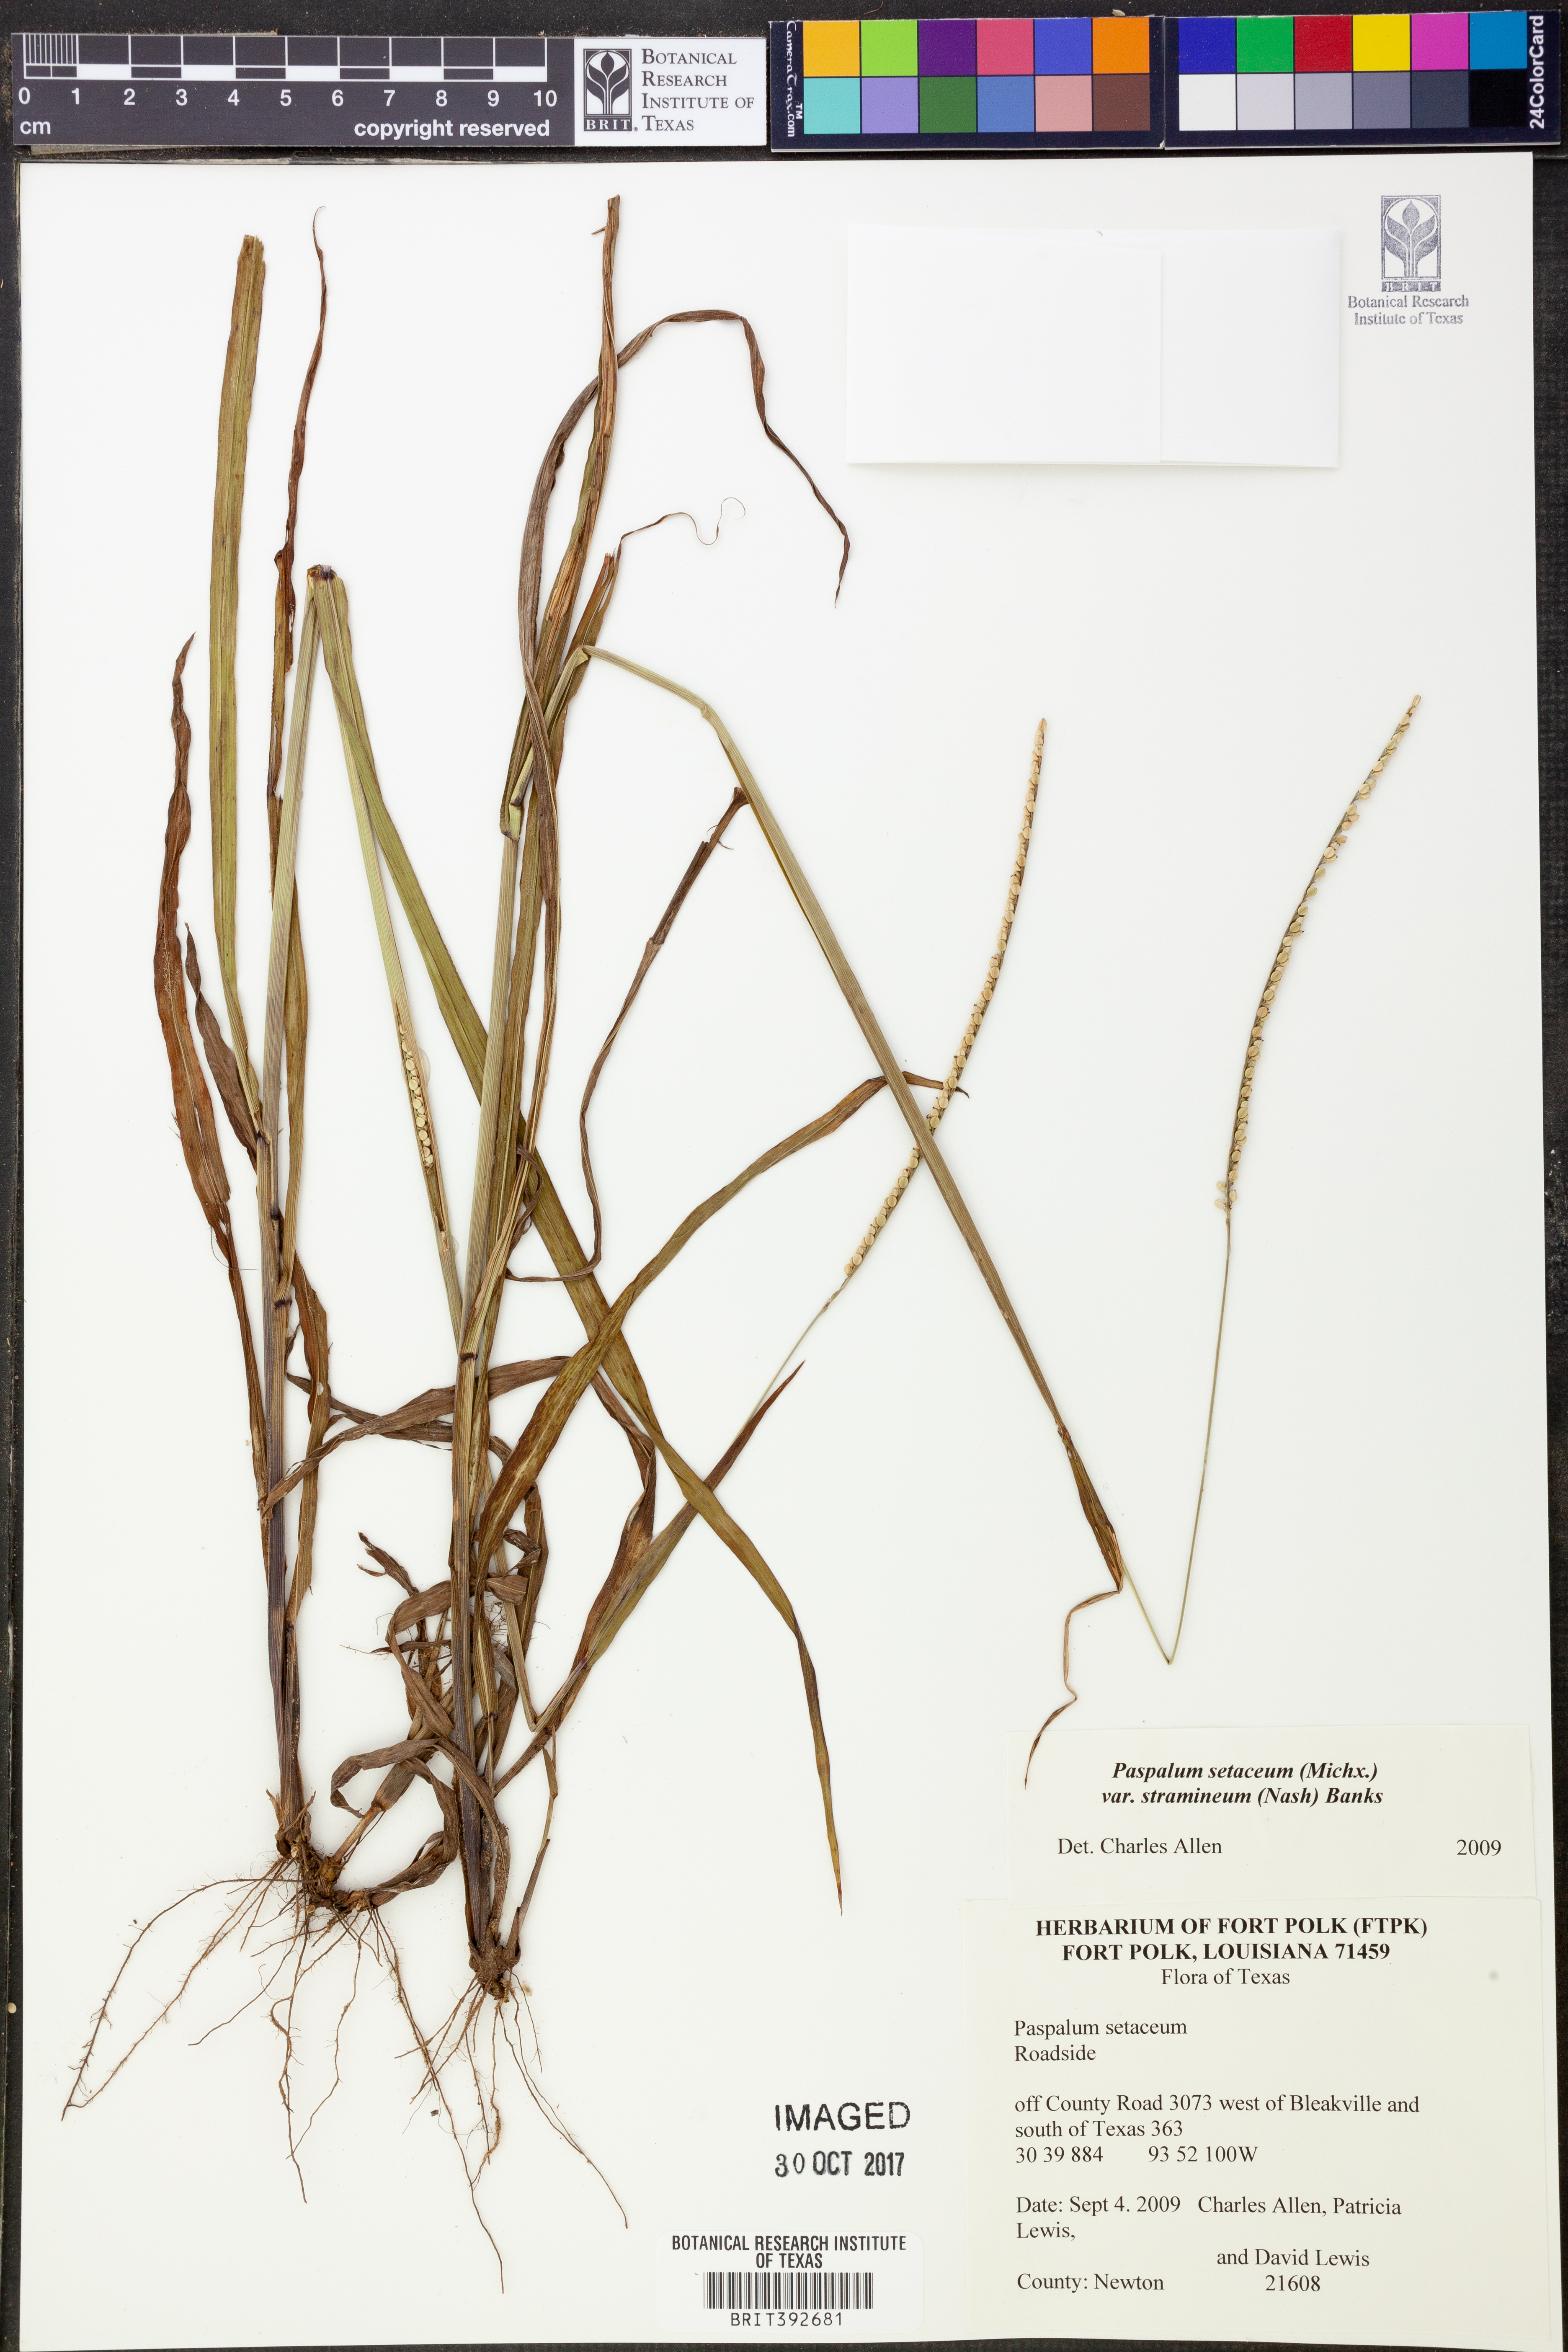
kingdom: Plantae
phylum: Tracheophyta
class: Liliopsida
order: Poales
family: Poaceae
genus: Paspalum
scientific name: Paspalum setaceum
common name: Slender paspalum
